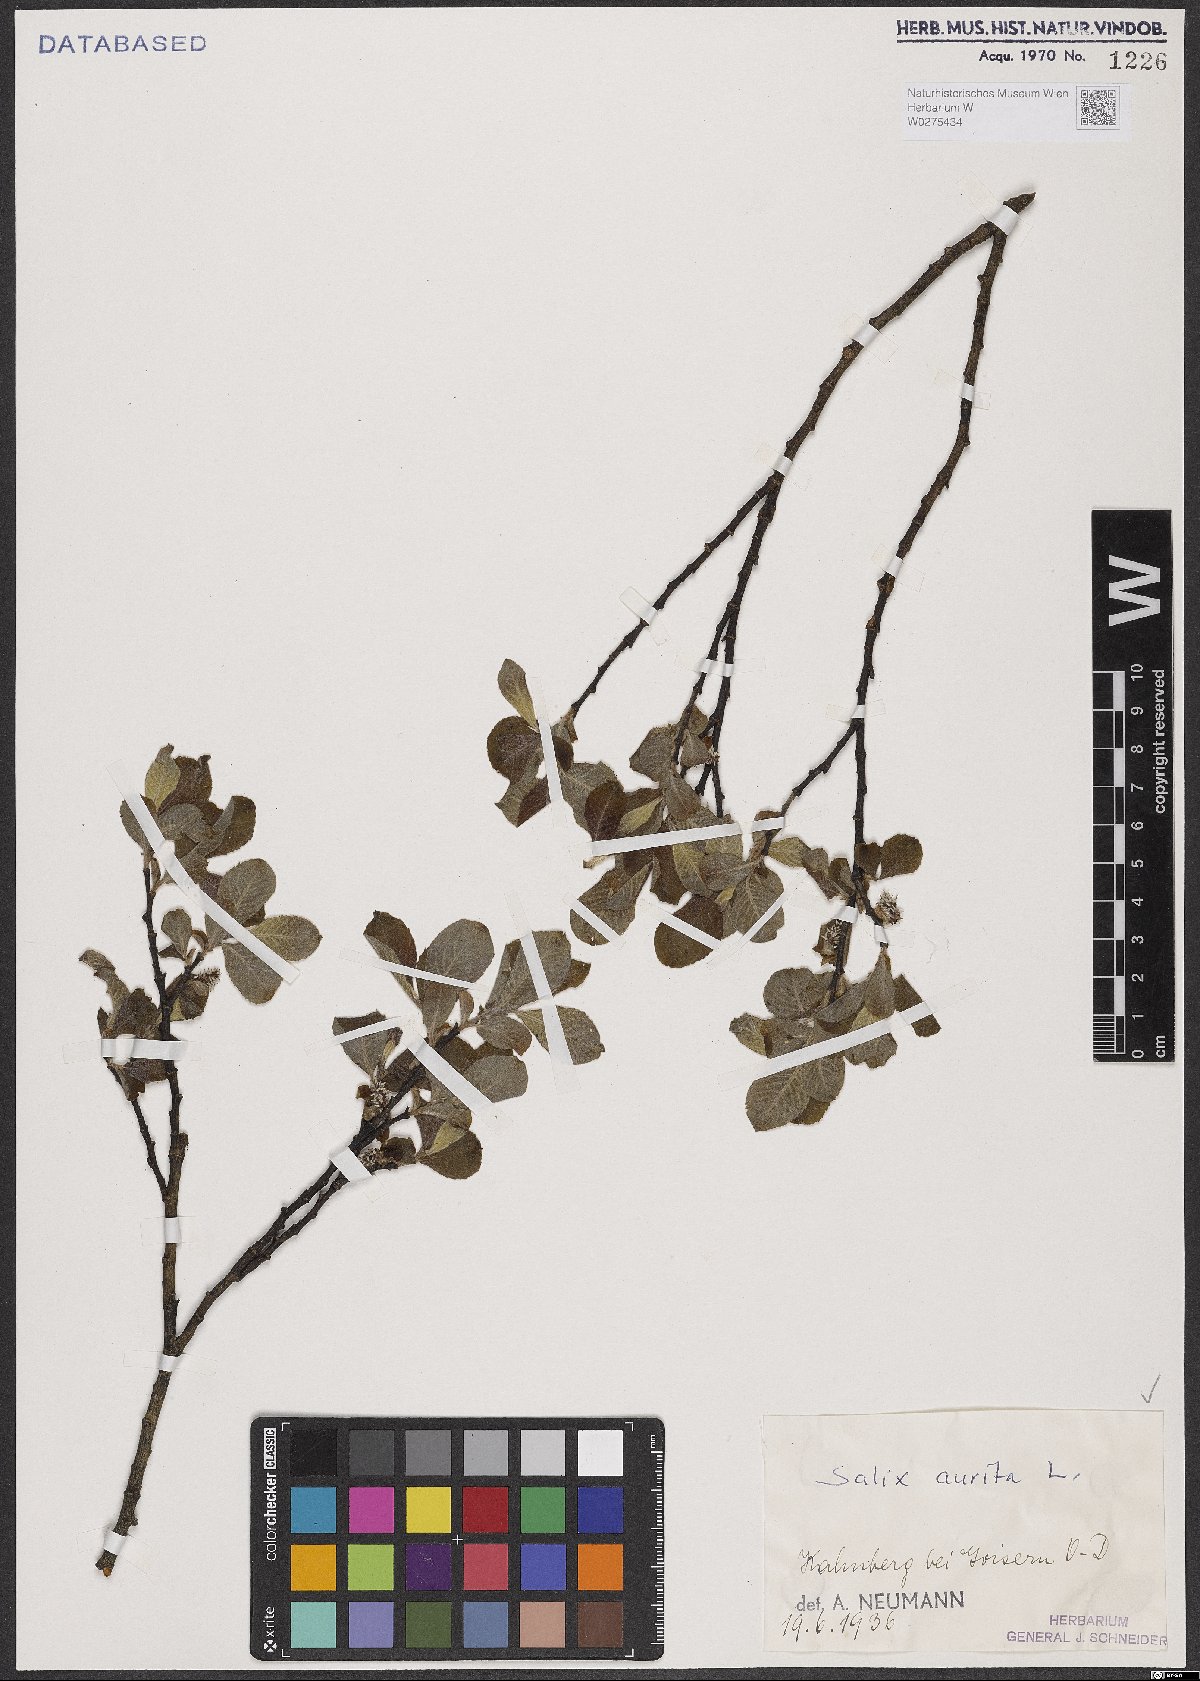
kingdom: Plantae
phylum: Tracheophyta
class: Magnoliopsida
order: Malpighiales
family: Salicaceae
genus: Salix
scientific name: Salix aurita
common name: Eared willow
